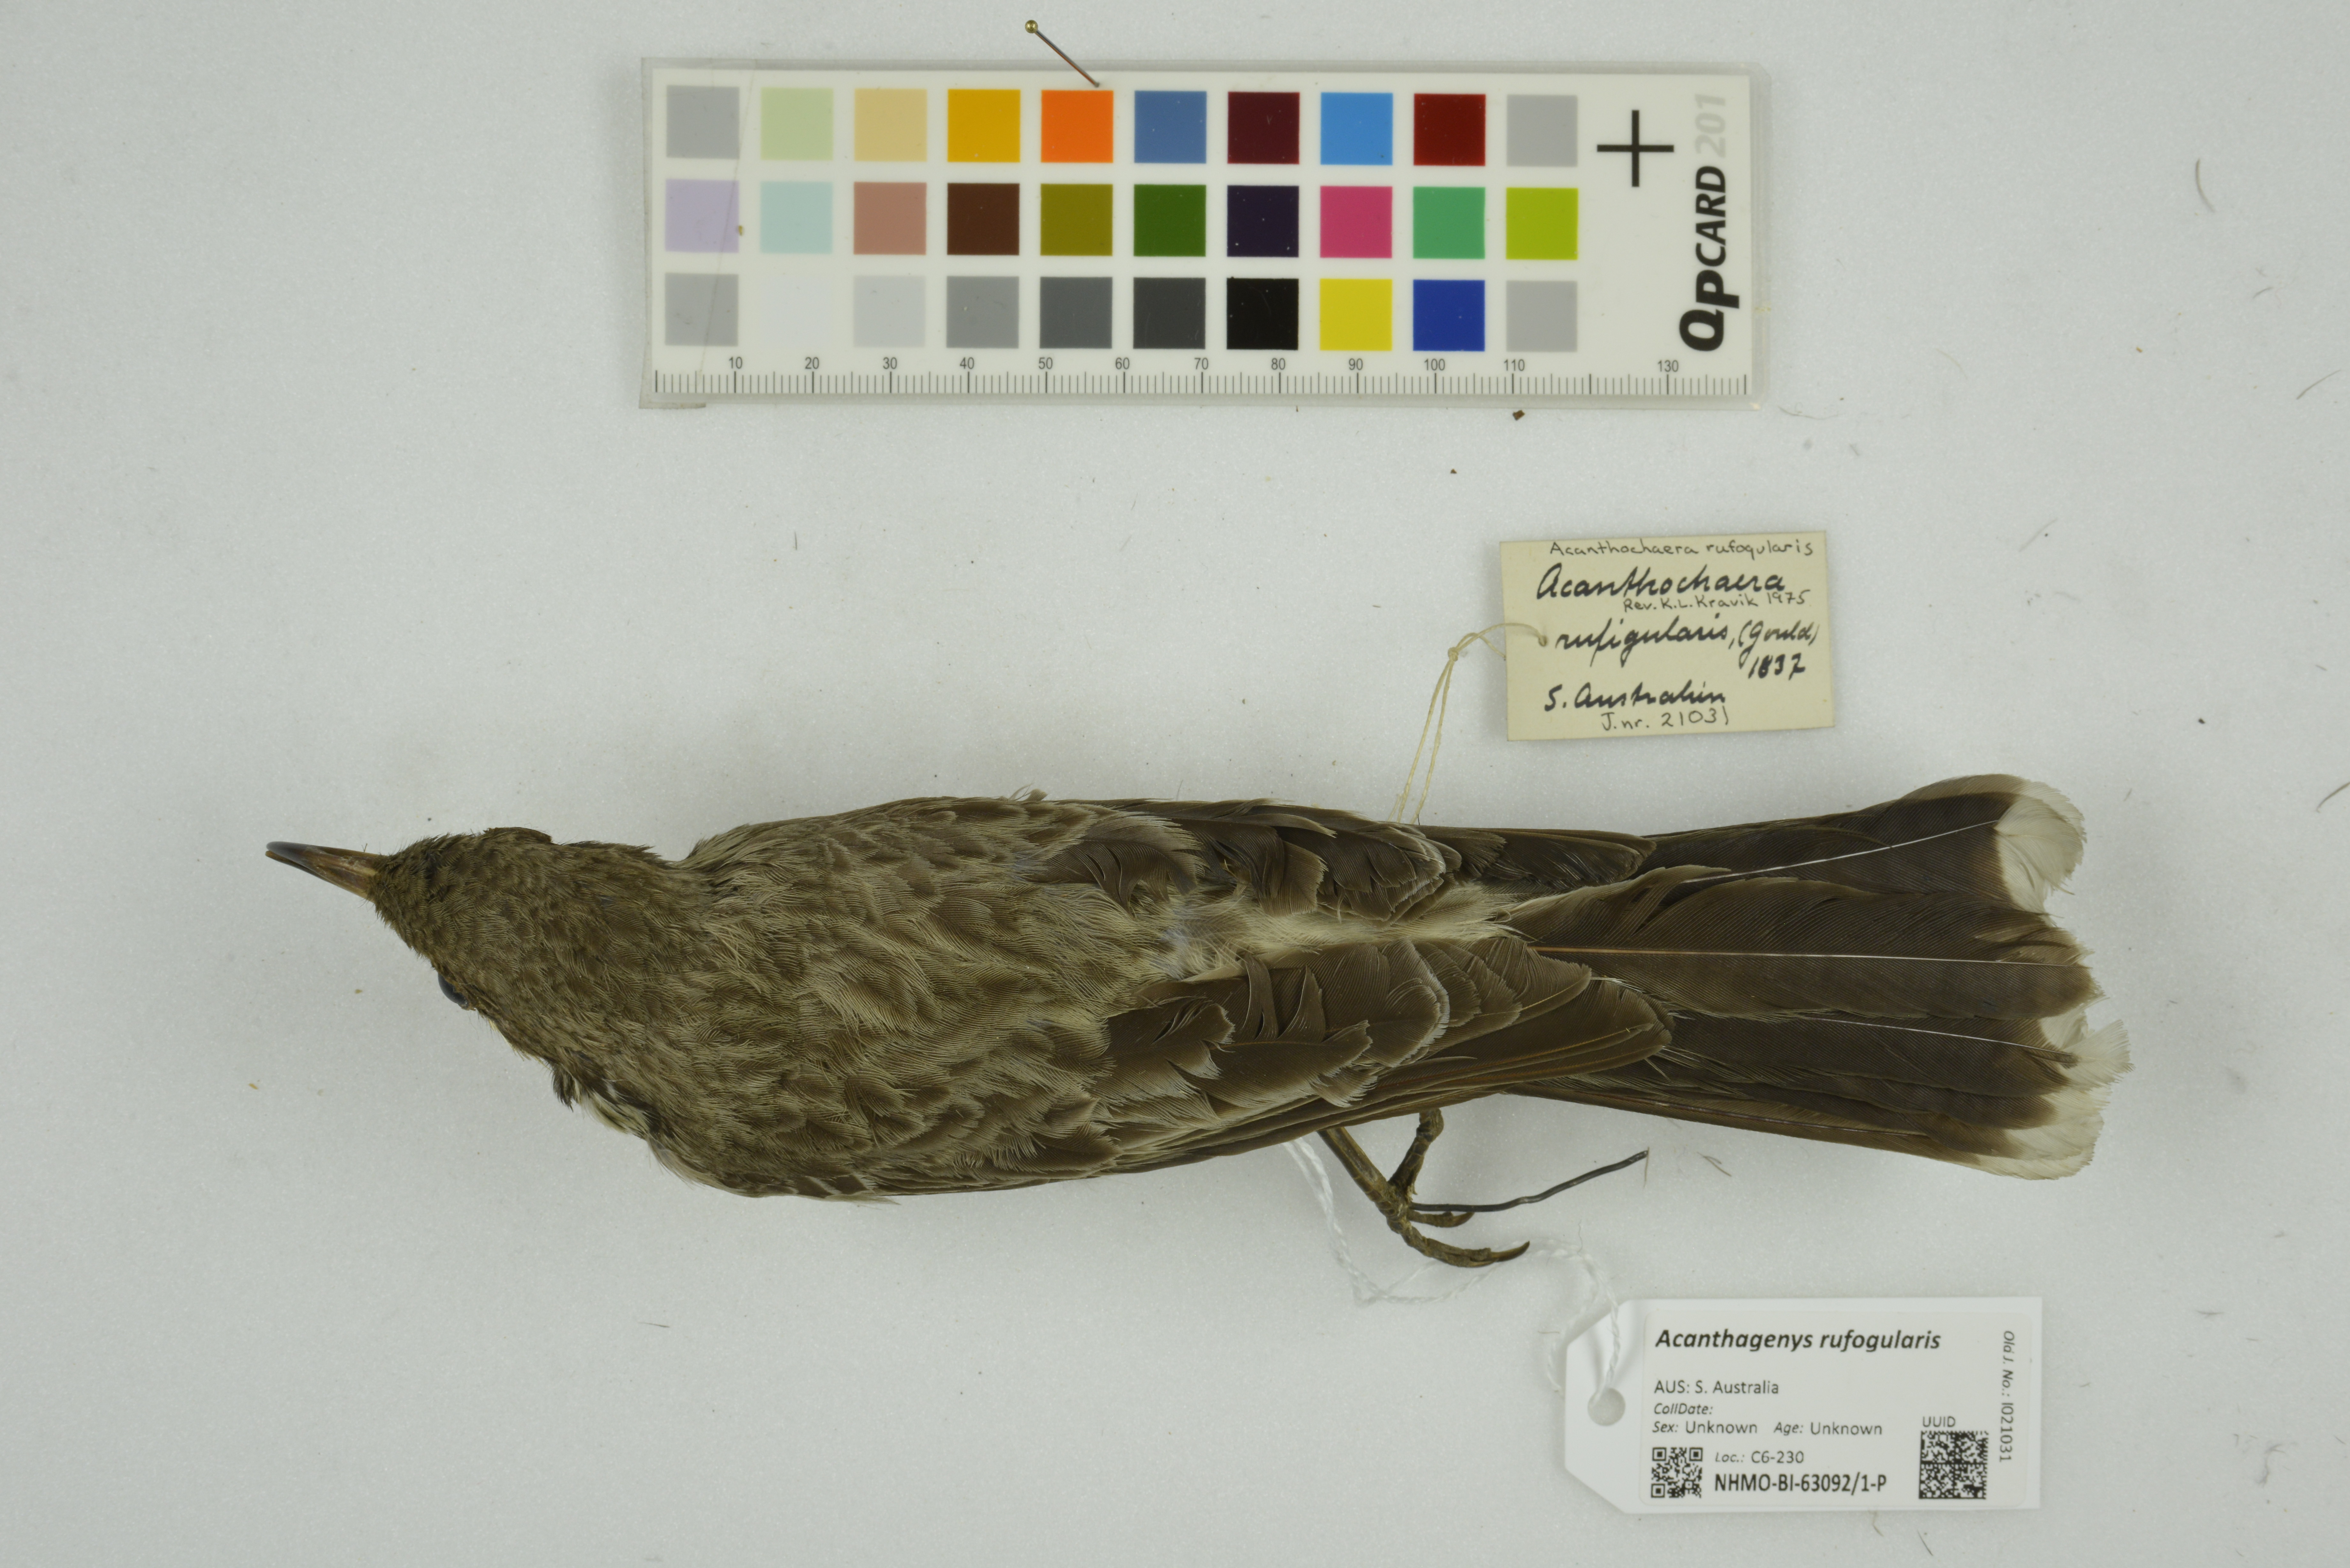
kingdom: Animalia
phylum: Chordata
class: Aves
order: Passeriformes
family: Meliphagidae
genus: Acanthagenys
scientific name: Acanthagenys rufogularis
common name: Spiny-cheeked honeyeater
